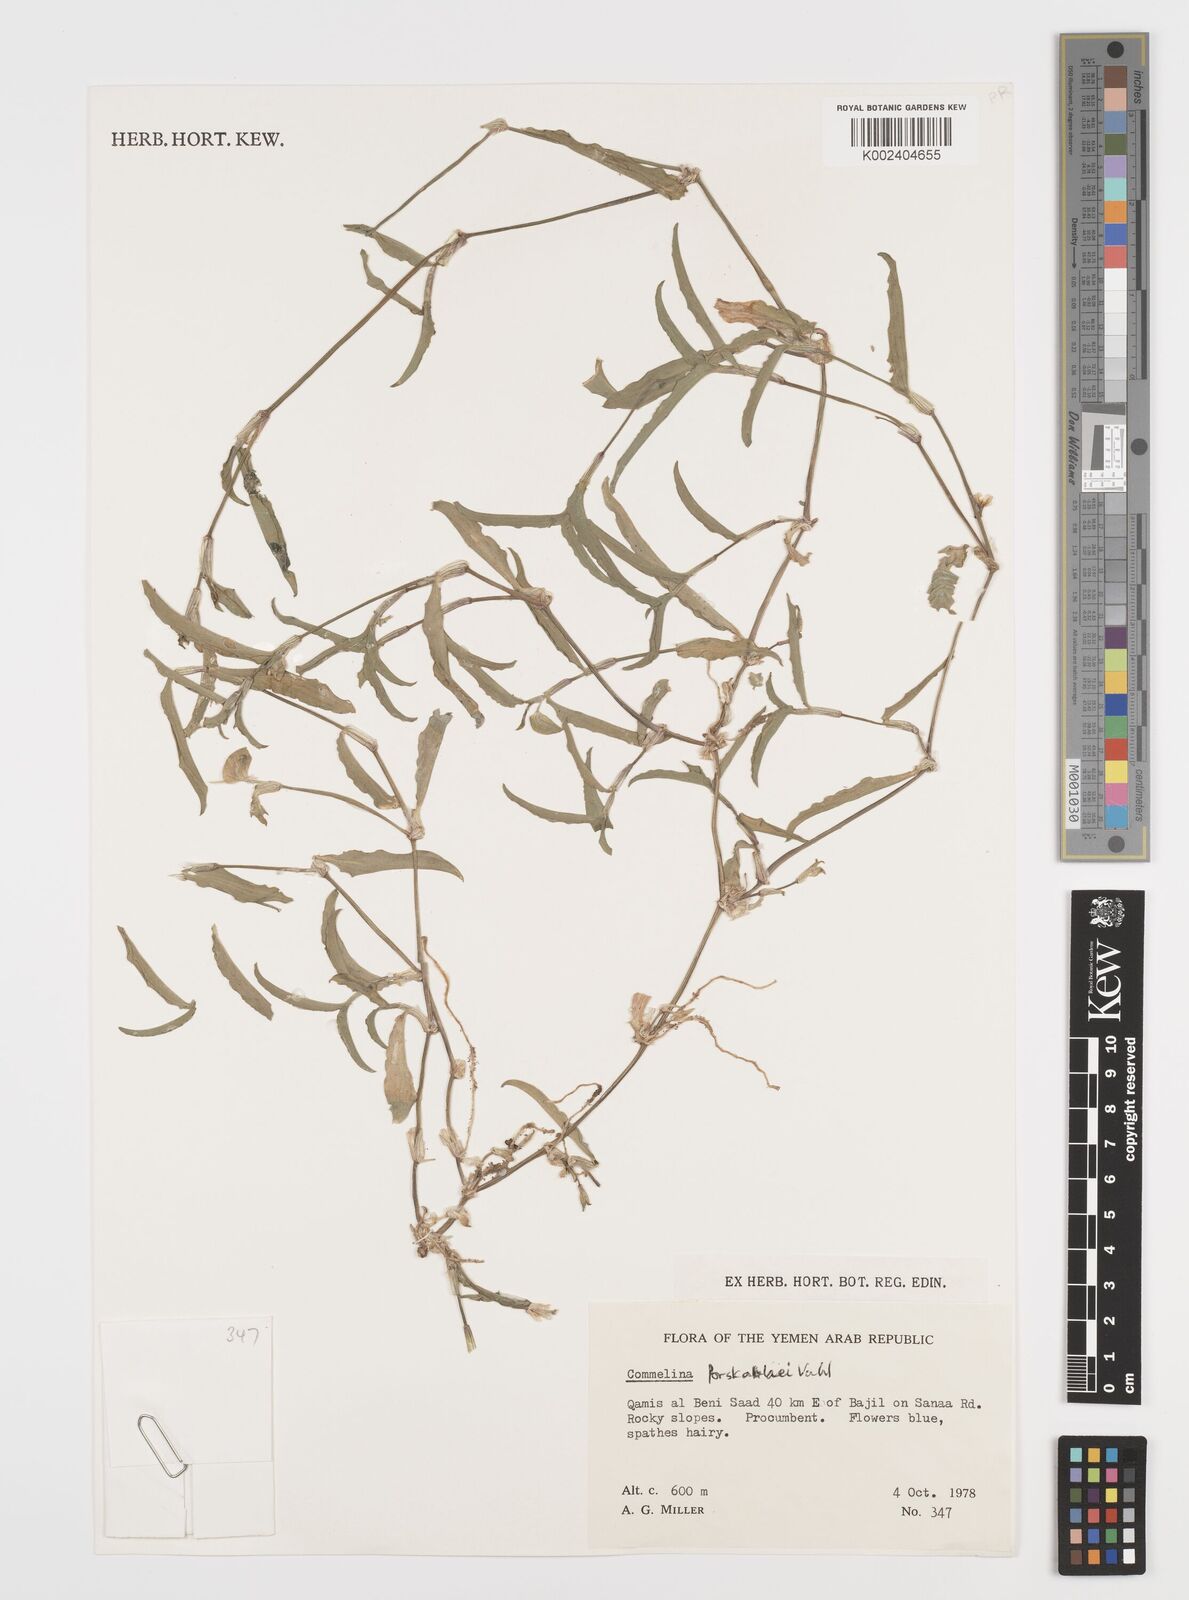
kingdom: Plantae
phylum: Tracheophyta
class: Liliopsida
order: Commelinales
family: Commelinaceae
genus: Commelina
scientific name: Commelina forskaolii
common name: Rat's ear
